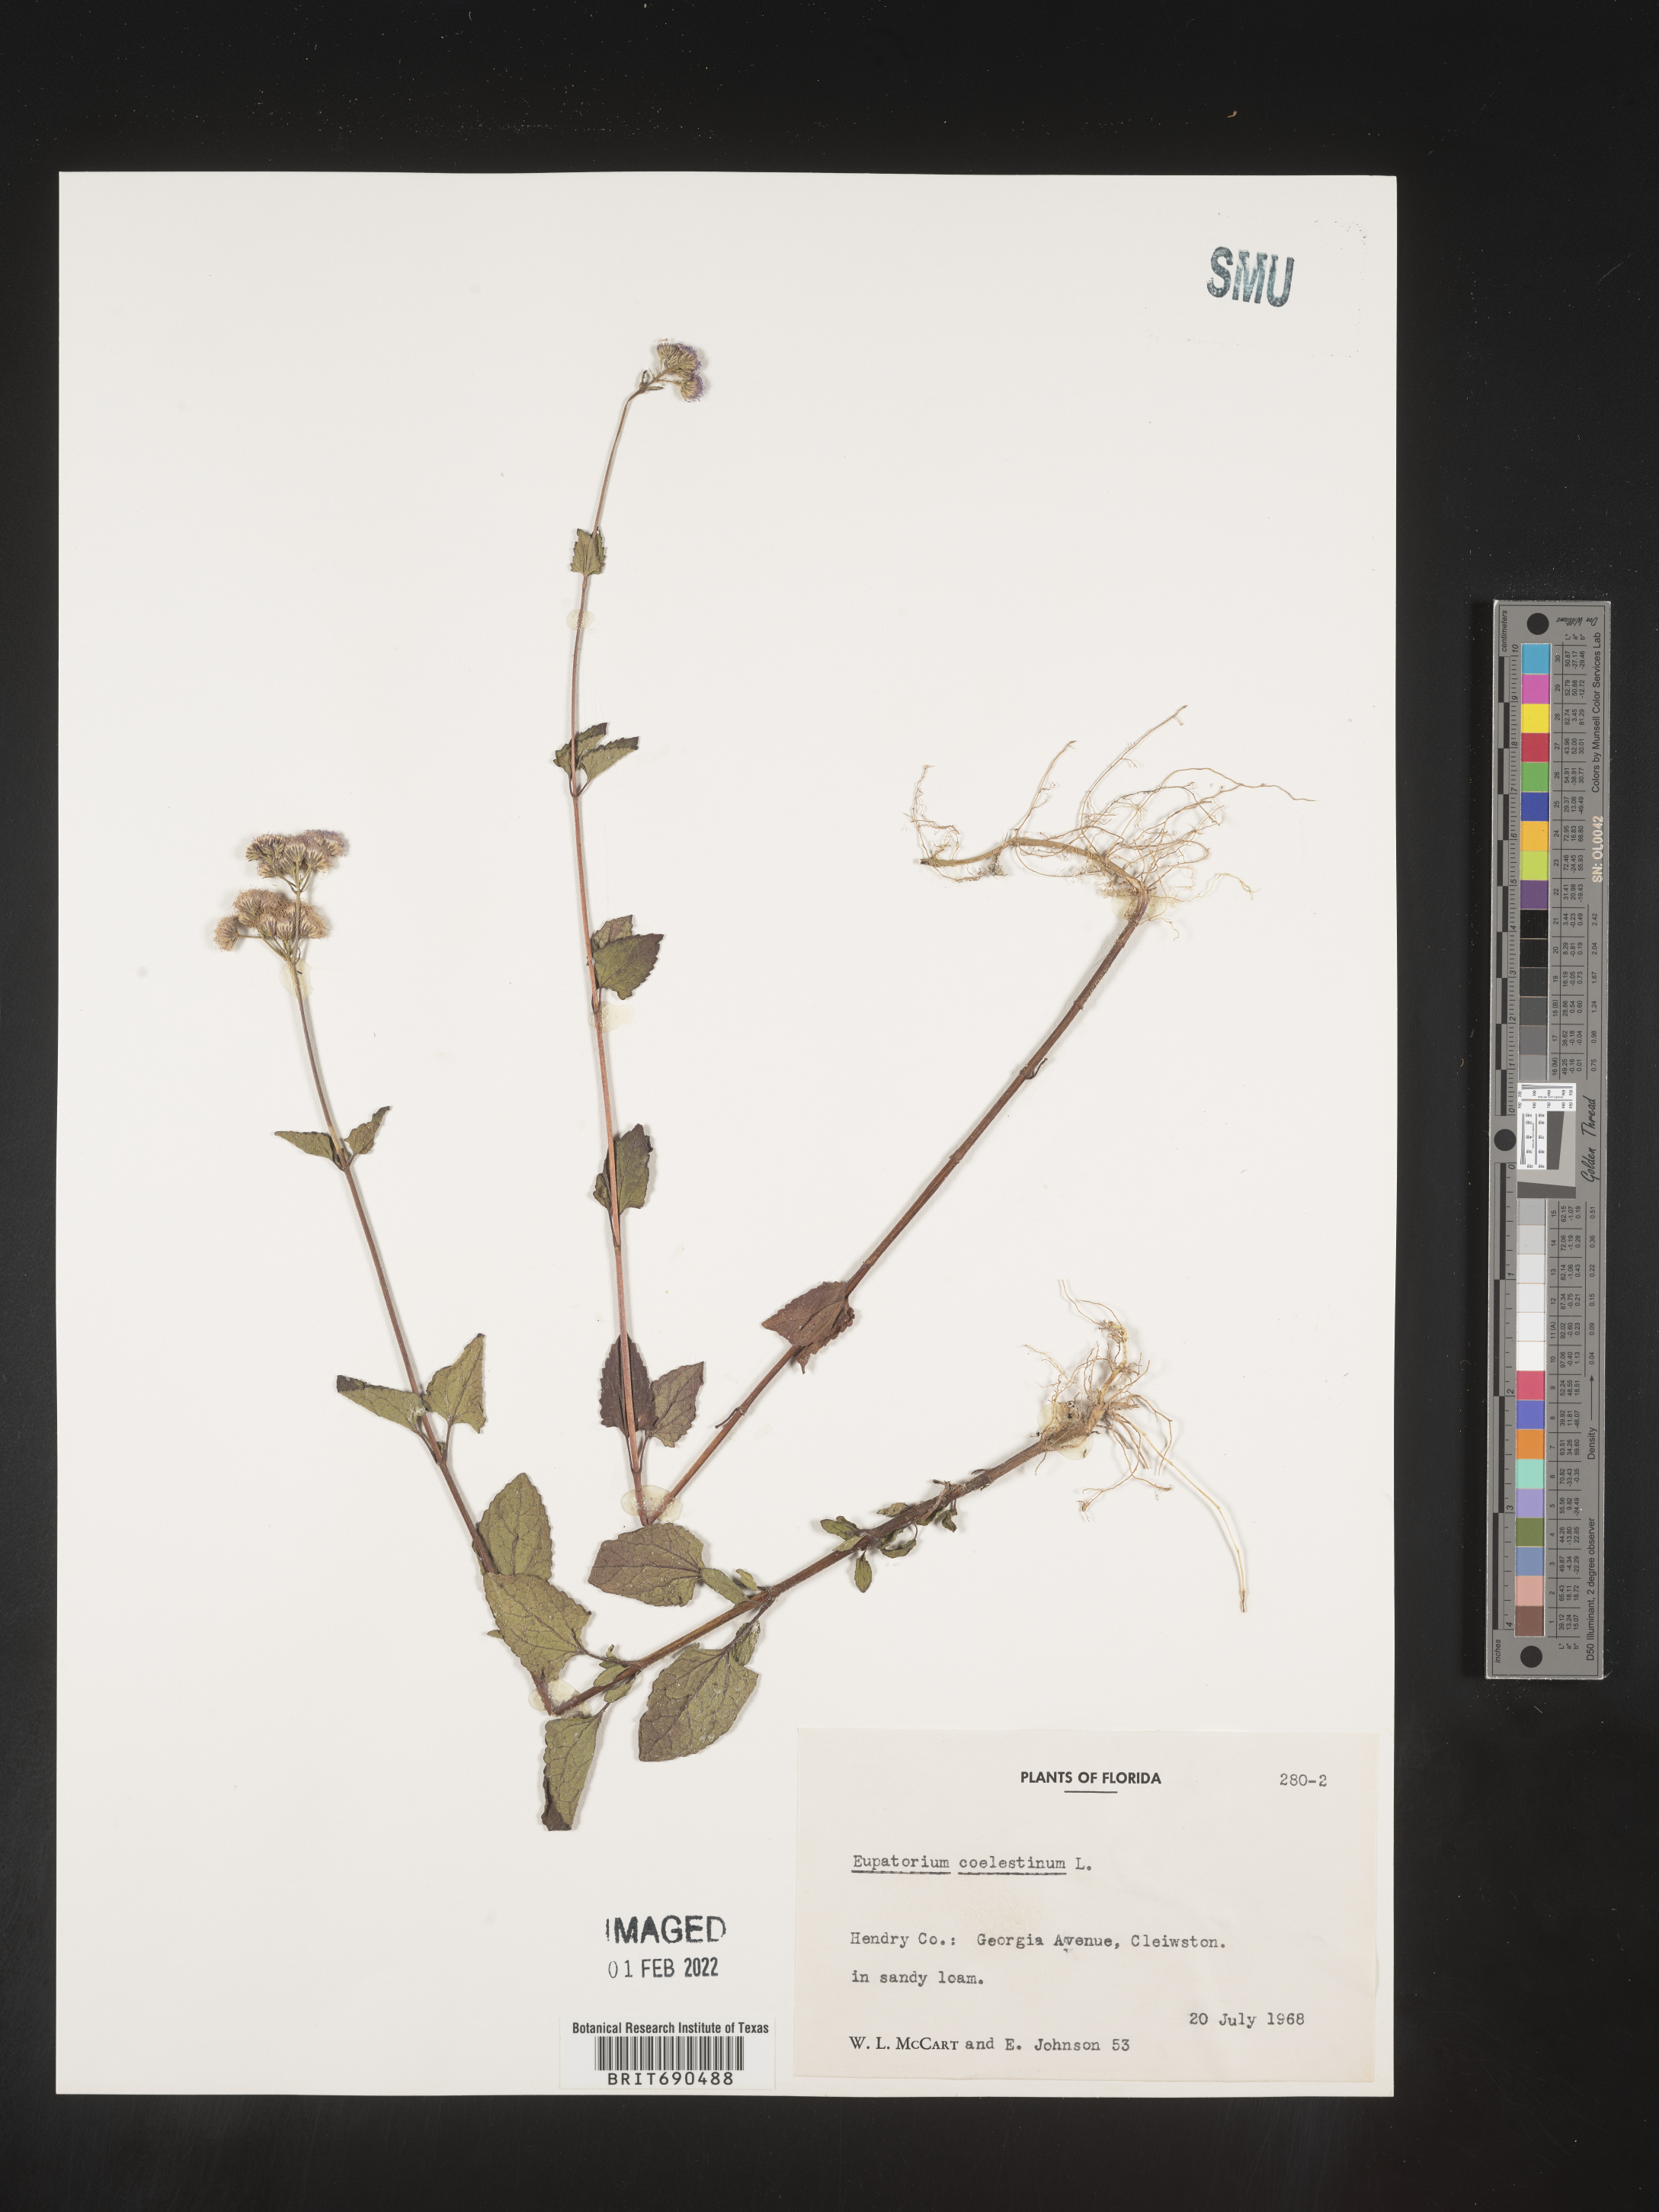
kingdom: Plantae
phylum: Tracheophyta
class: Magnoliopsida
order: Asterales
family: Asteraceae
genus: Conoclinium
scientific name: Conoclinium coelestinum
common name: Blue mistflower
